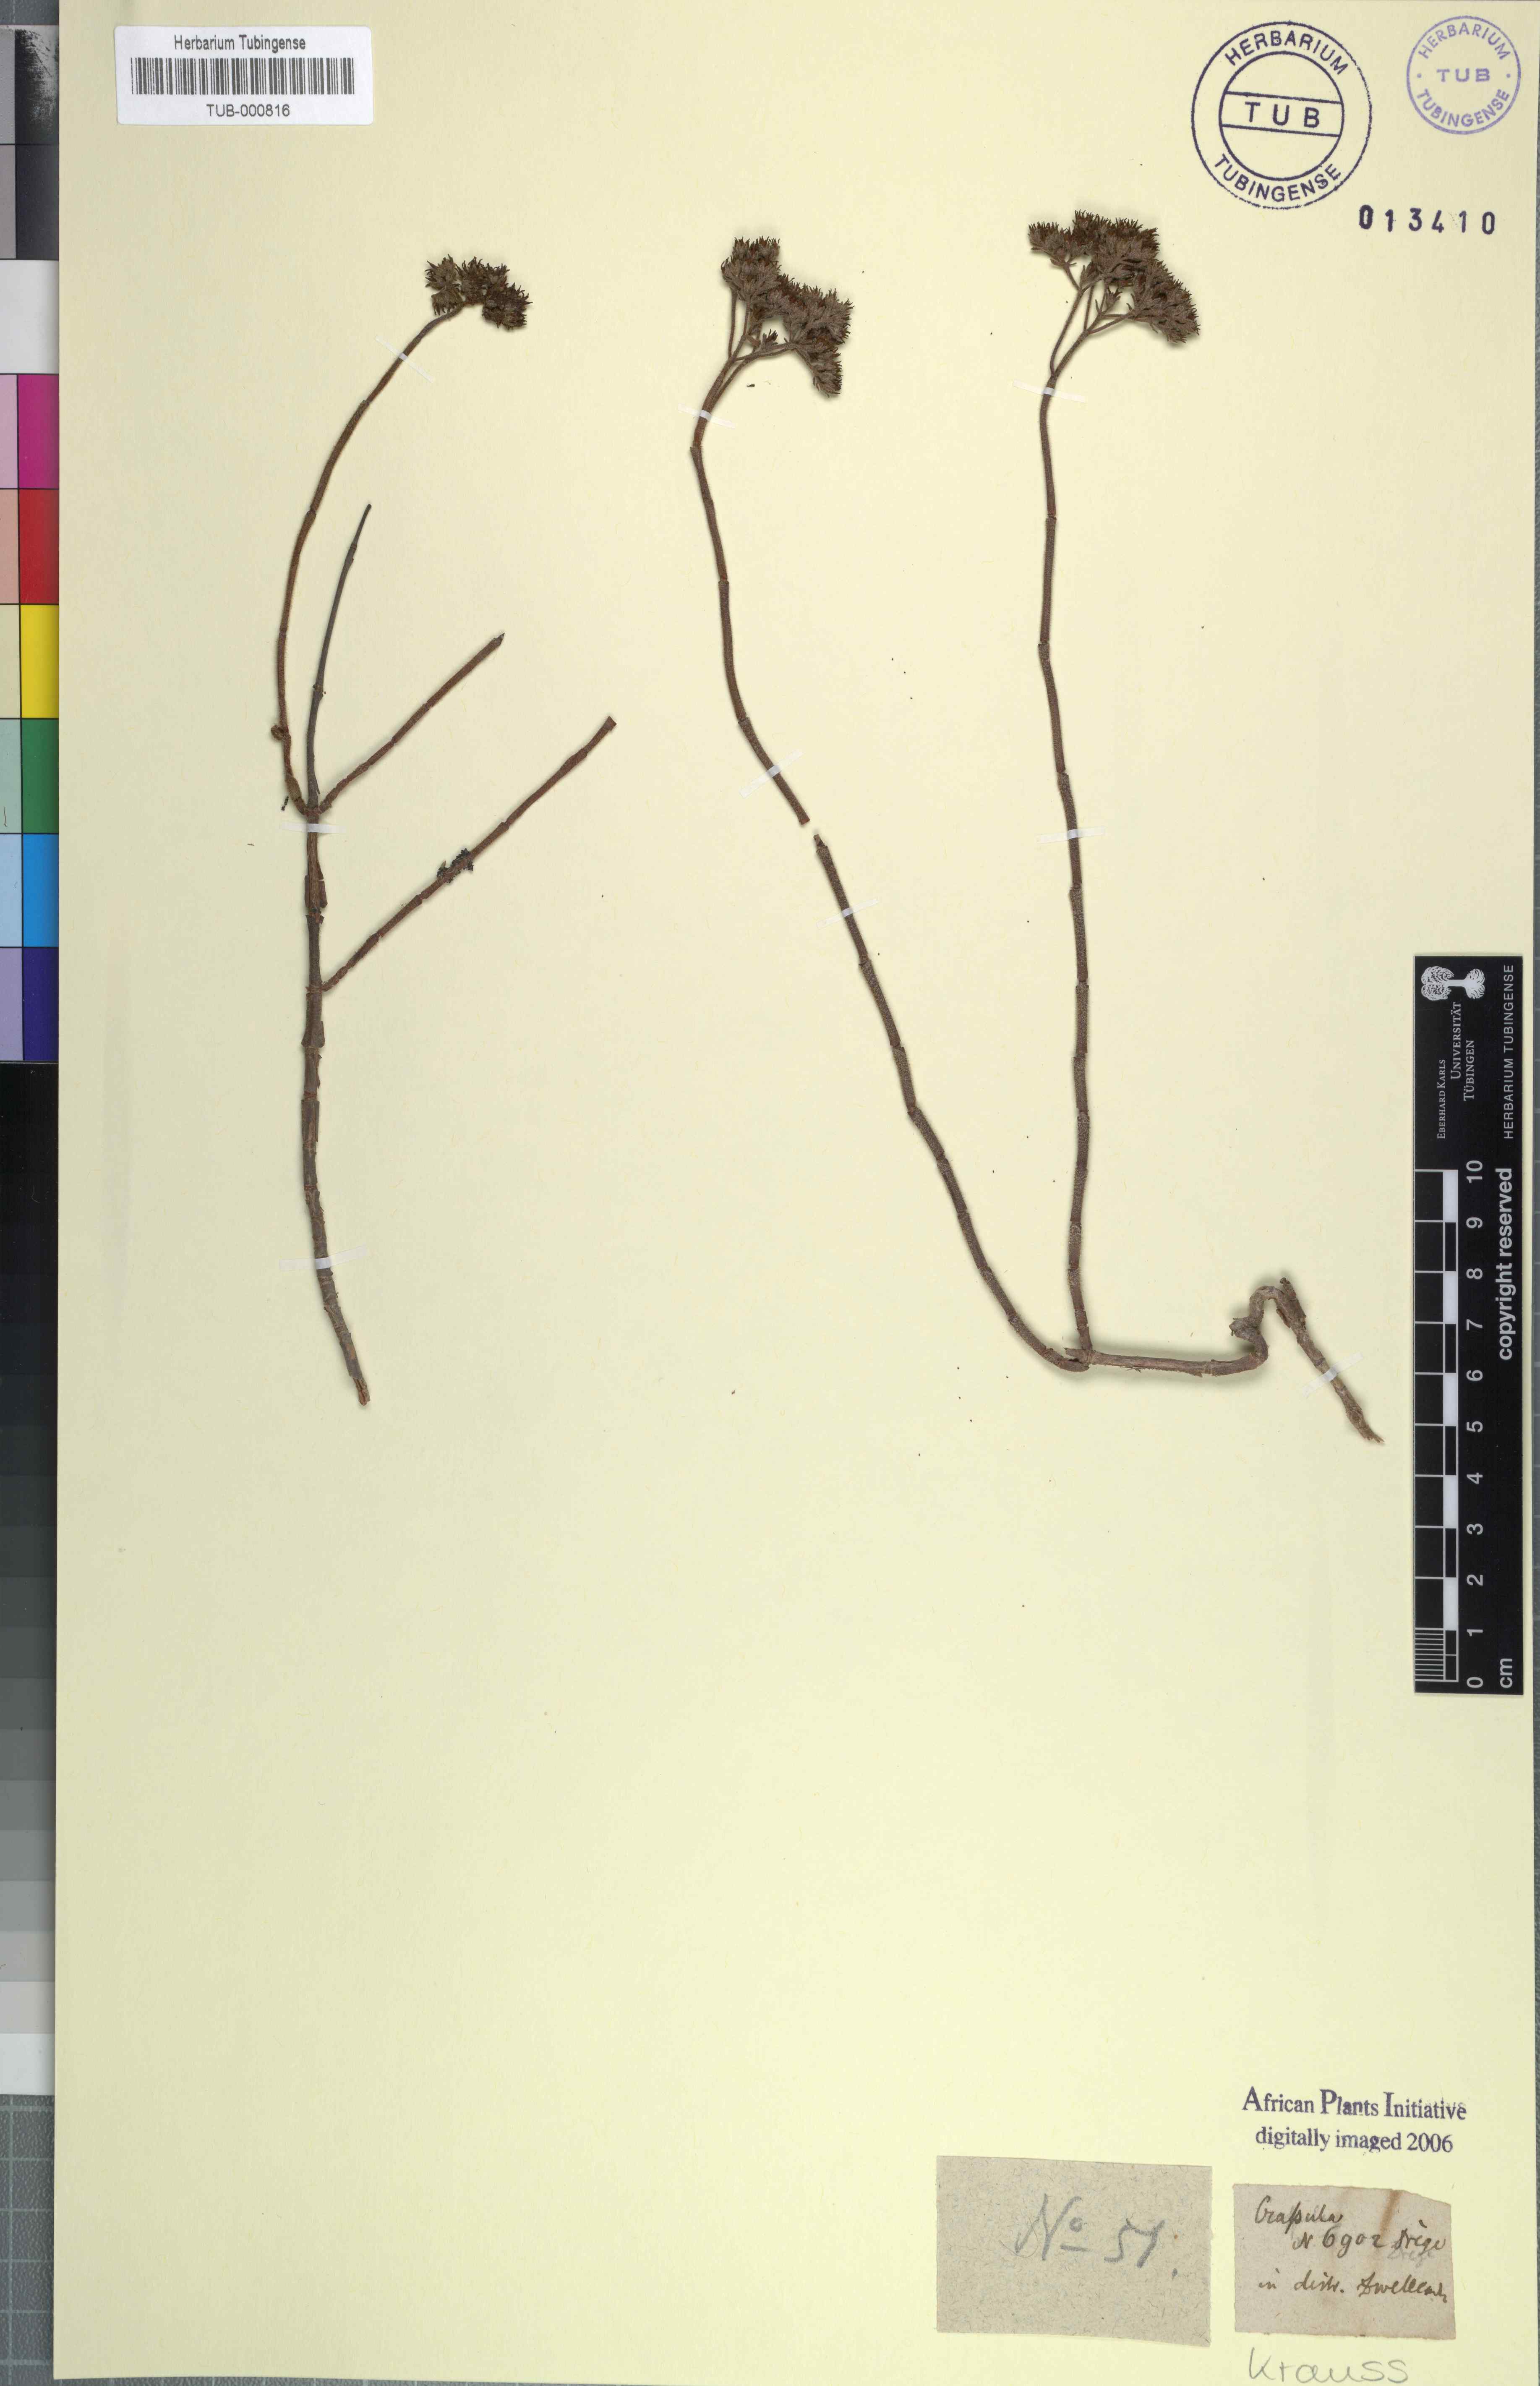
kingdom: Plantae
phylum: Tracheophyta
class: Magnoliopsida
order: Saxifragales
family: Crassulaceae
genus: Crassula
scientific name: Crassula
